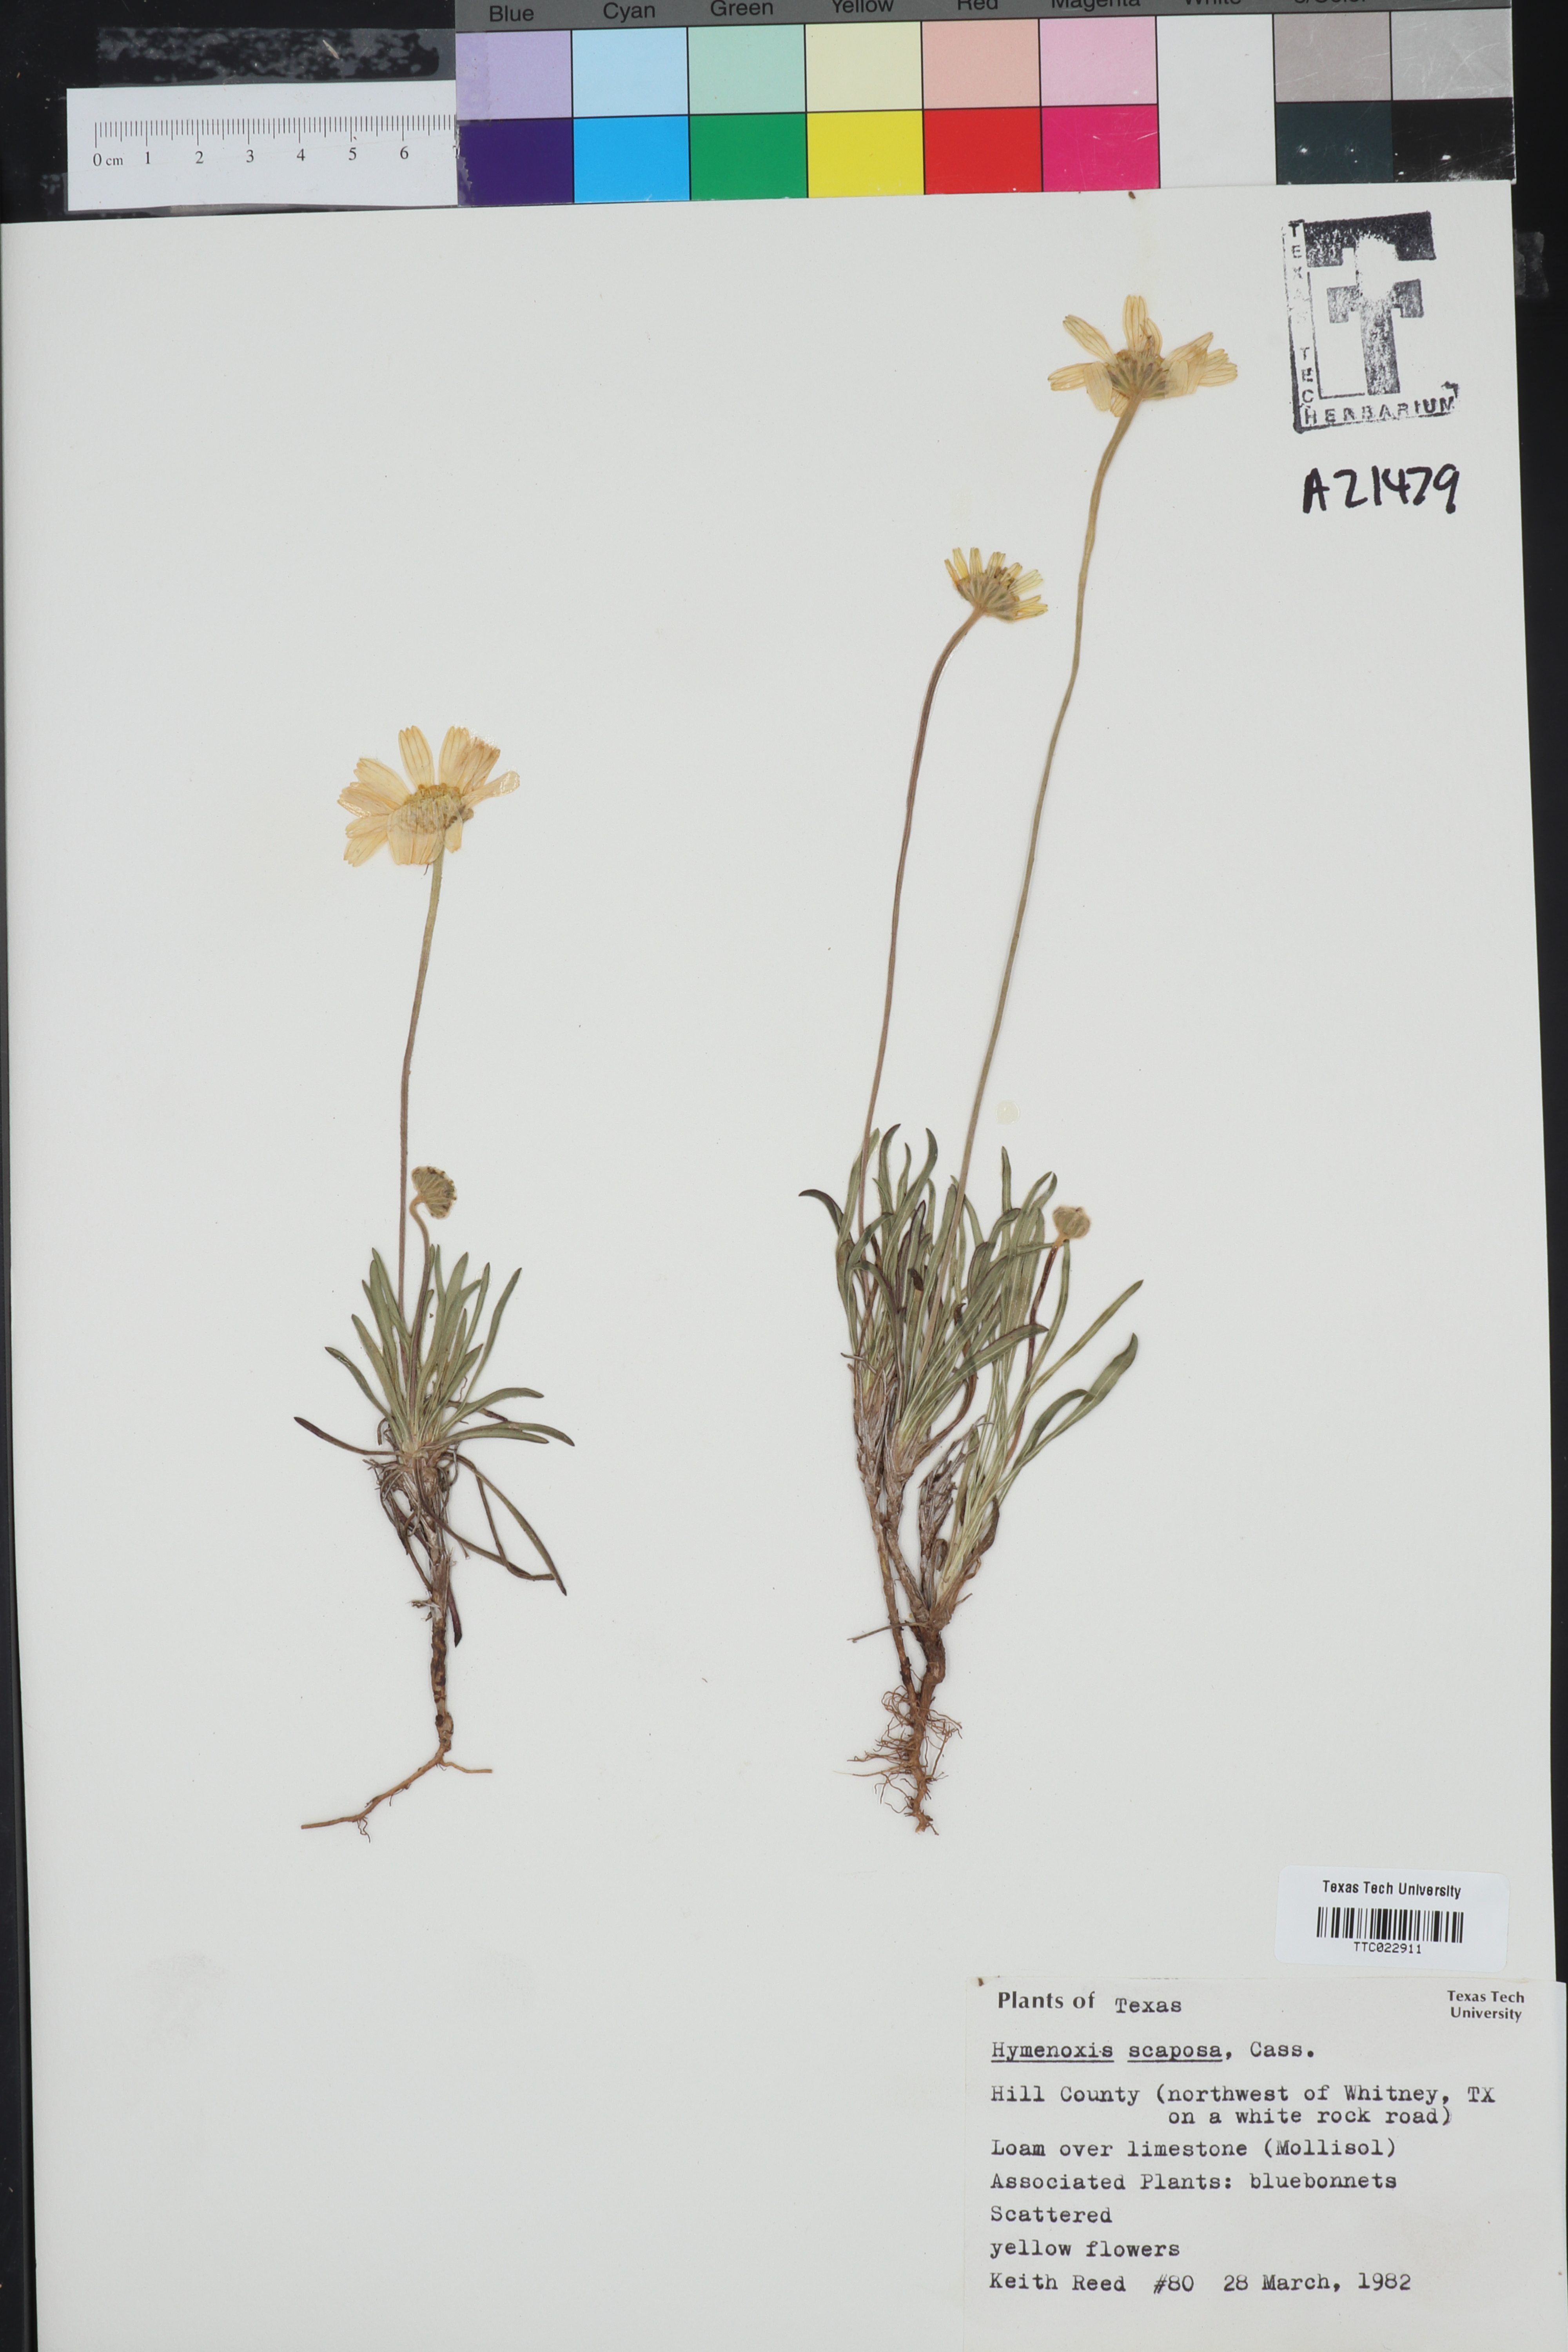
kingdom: Plantae
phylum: Tracheophyta
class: Magnoliopsida
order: Asterales
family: Asteraceae
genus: Tetraneuris
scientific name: Tetraneuris scaposa
